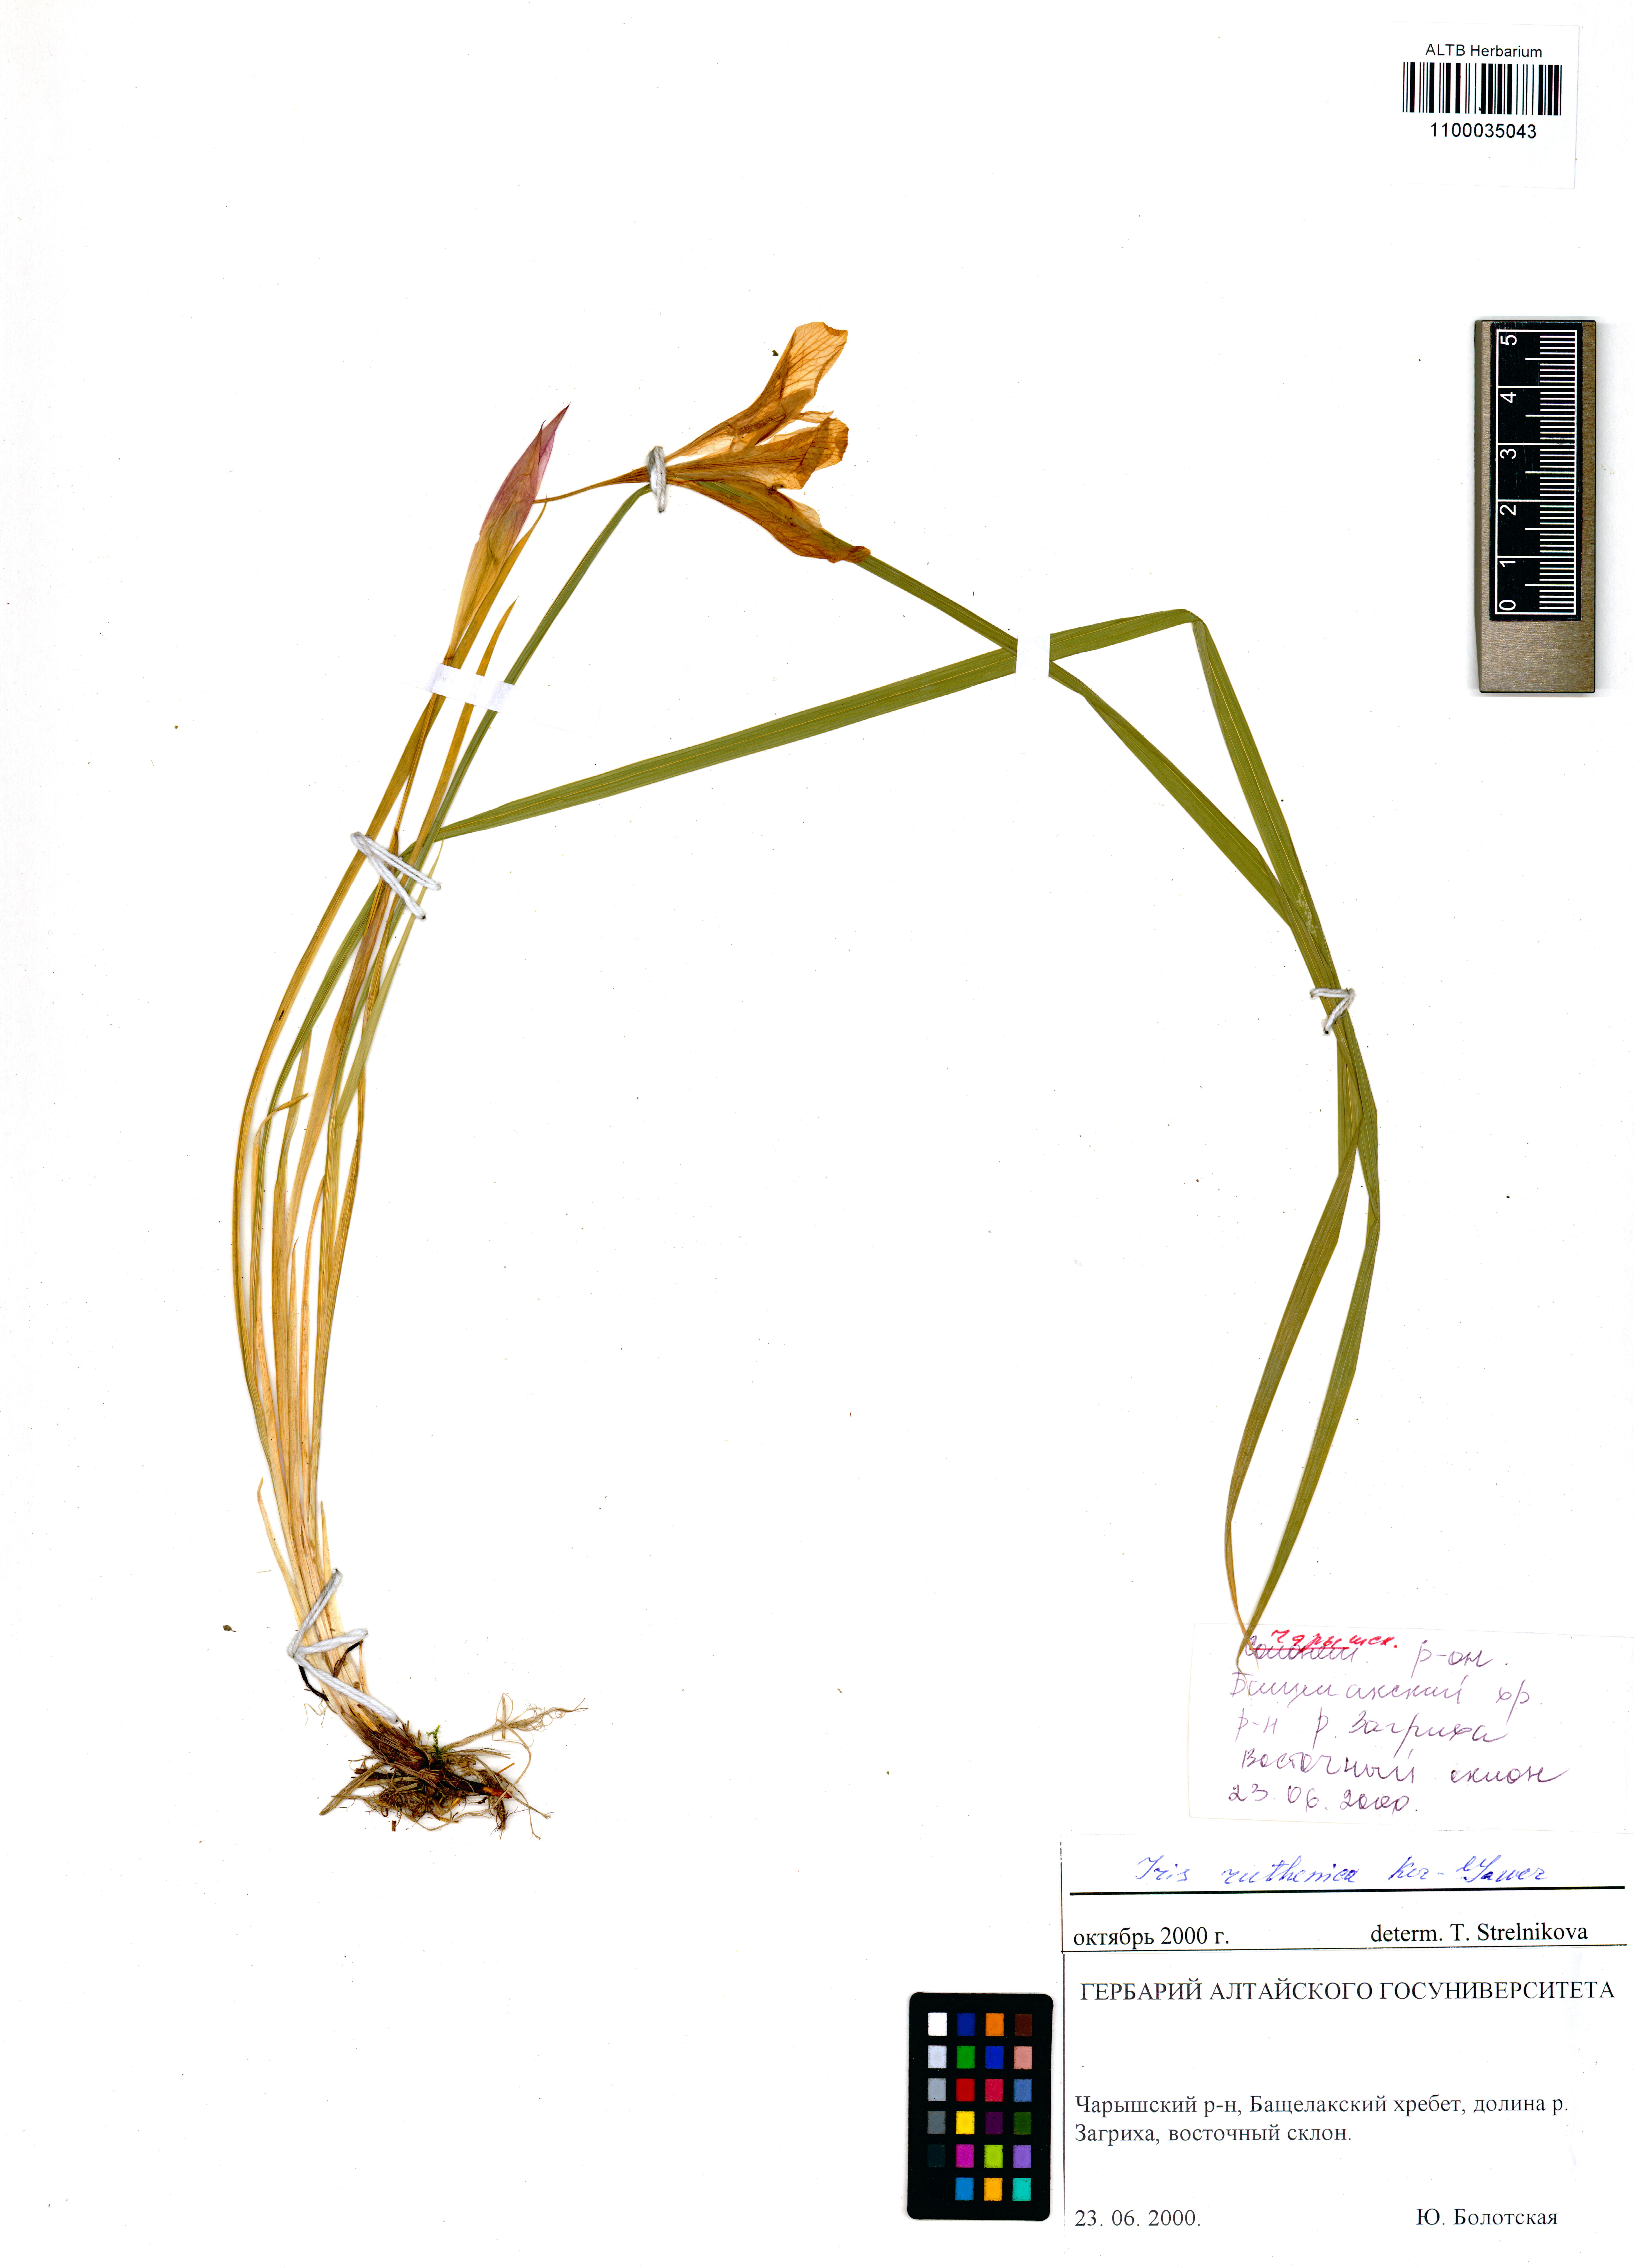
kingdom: Plantae
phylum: Tracheophyta
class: Liliopsida
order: Asparagales
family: Iridaceae
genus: Iris
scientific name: Iris ruthenica
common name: Purple-bract iris
